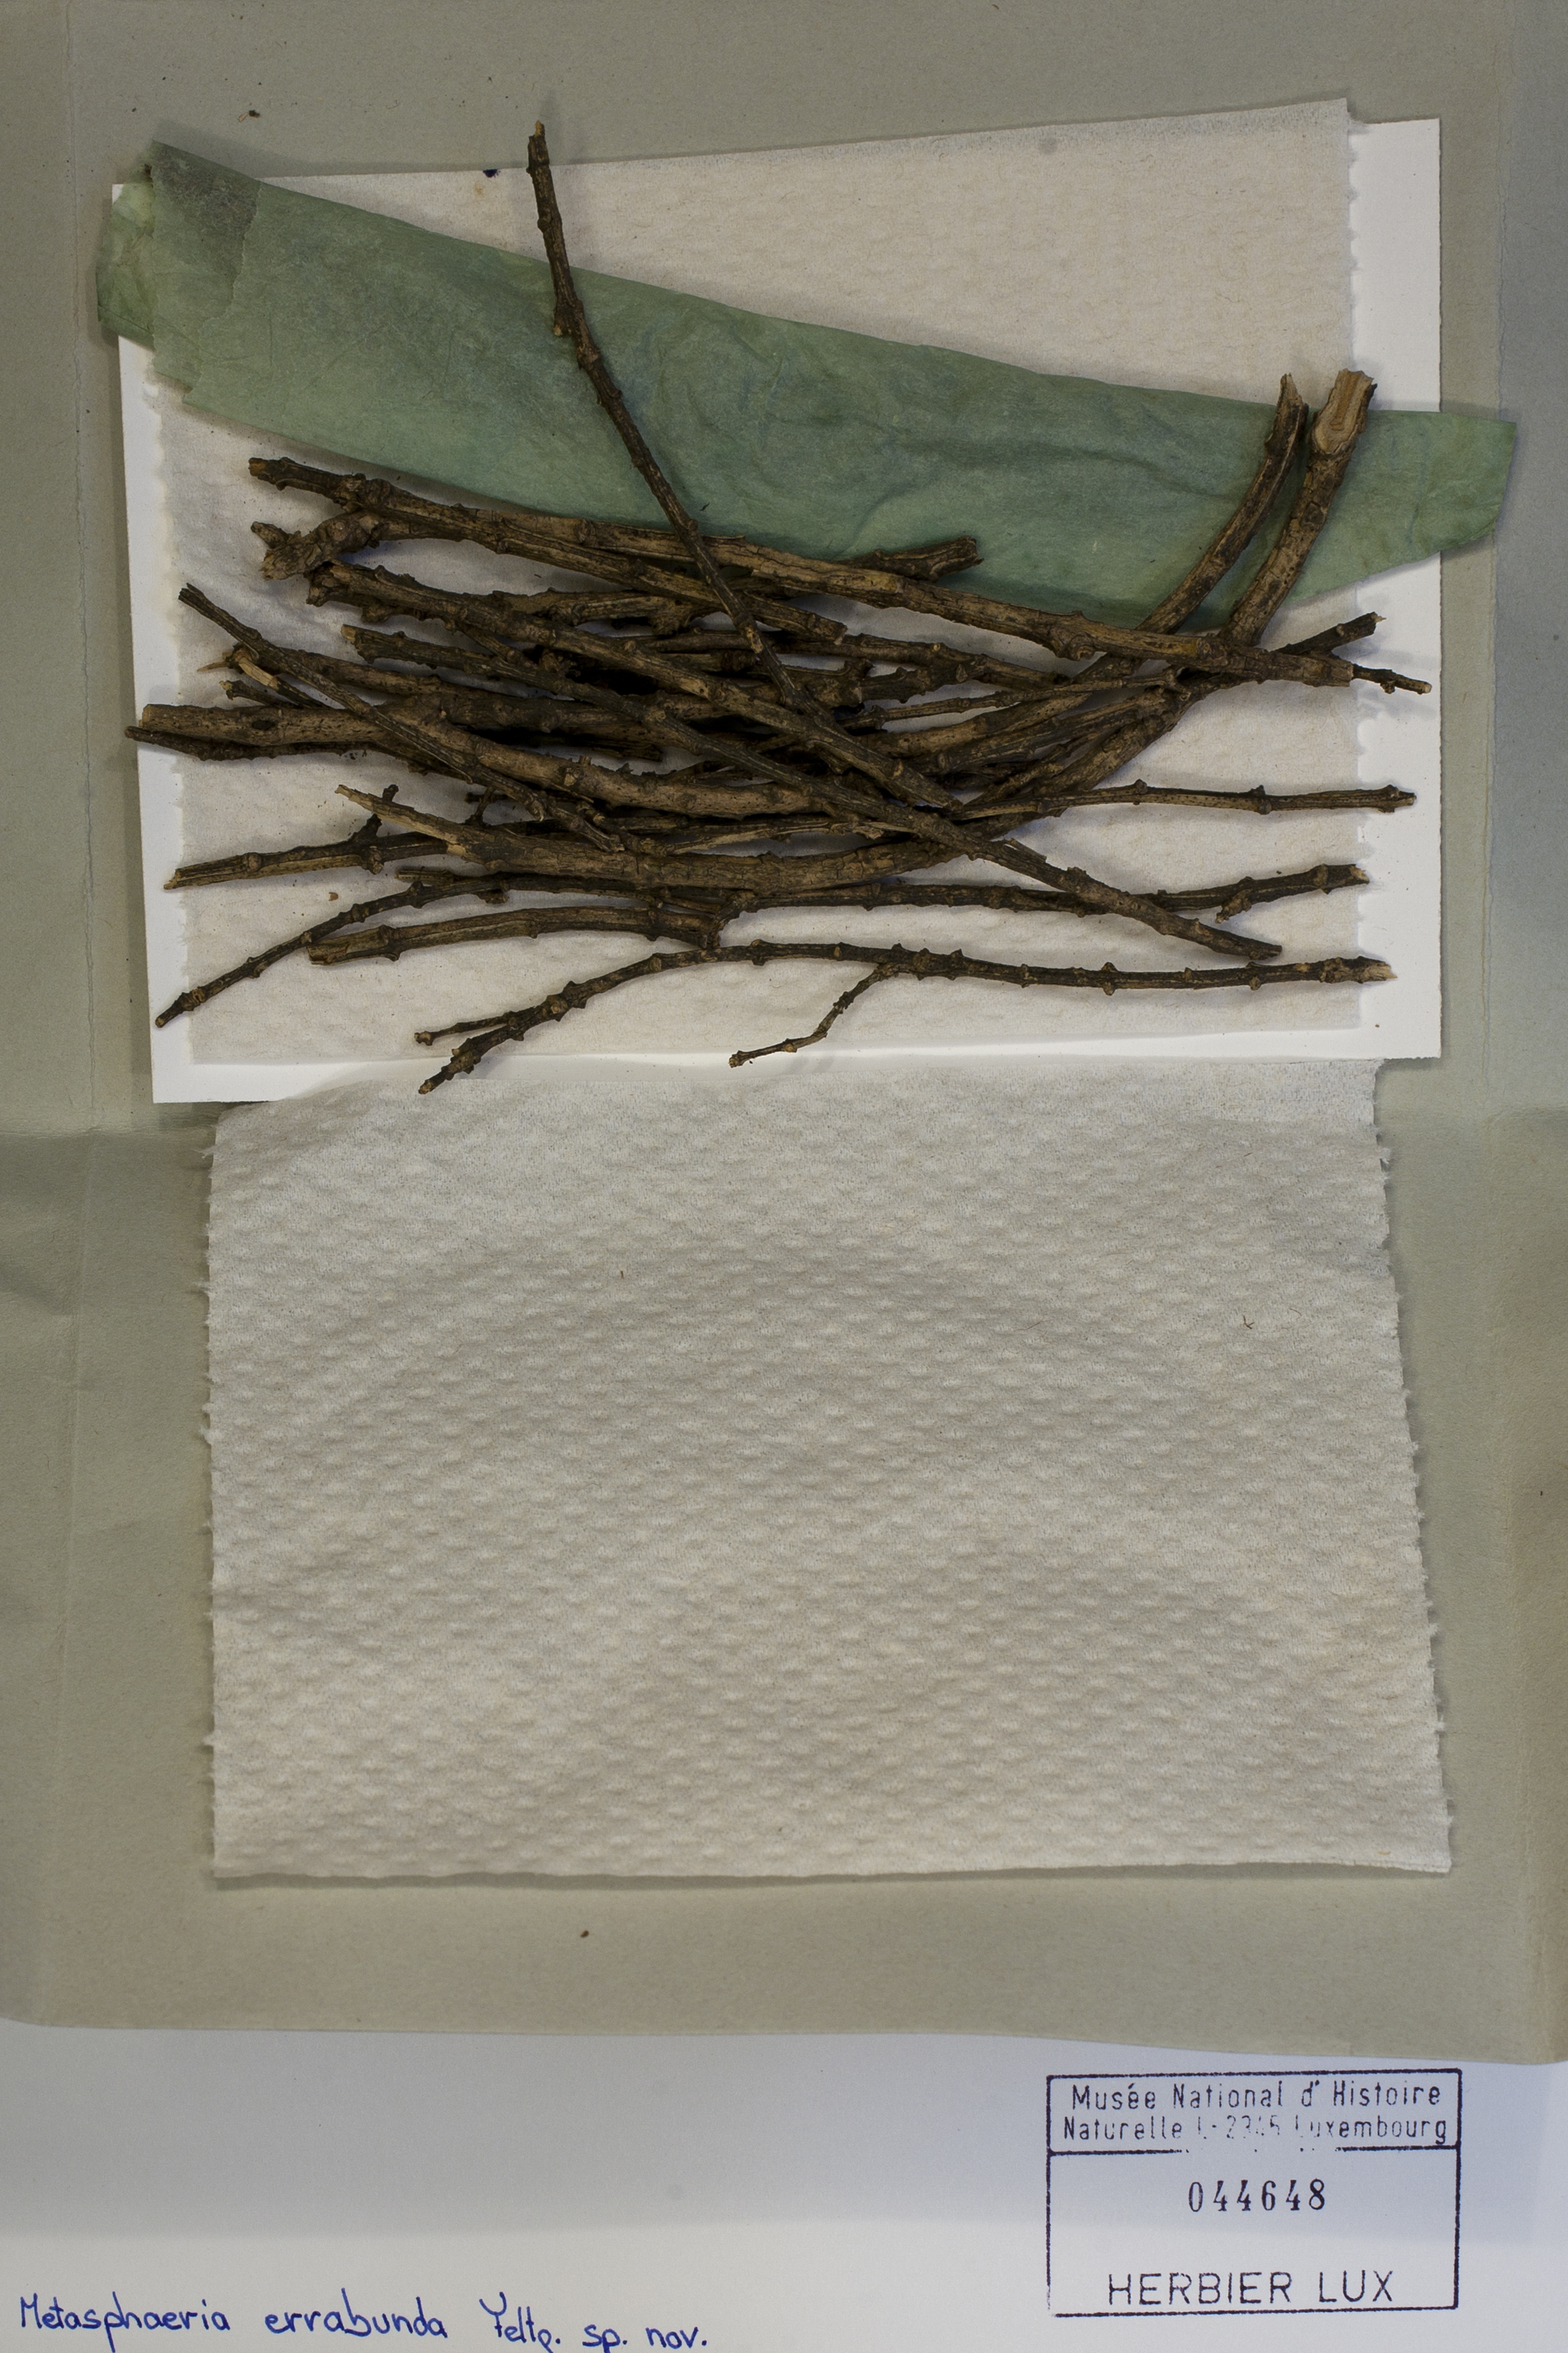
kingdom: Fungi
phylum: Ascomycota
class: Dothideomycetes
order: Dothideales
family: Saccotheciaceae
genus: Metasphaeria
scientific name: Metasphaeria errabunda
